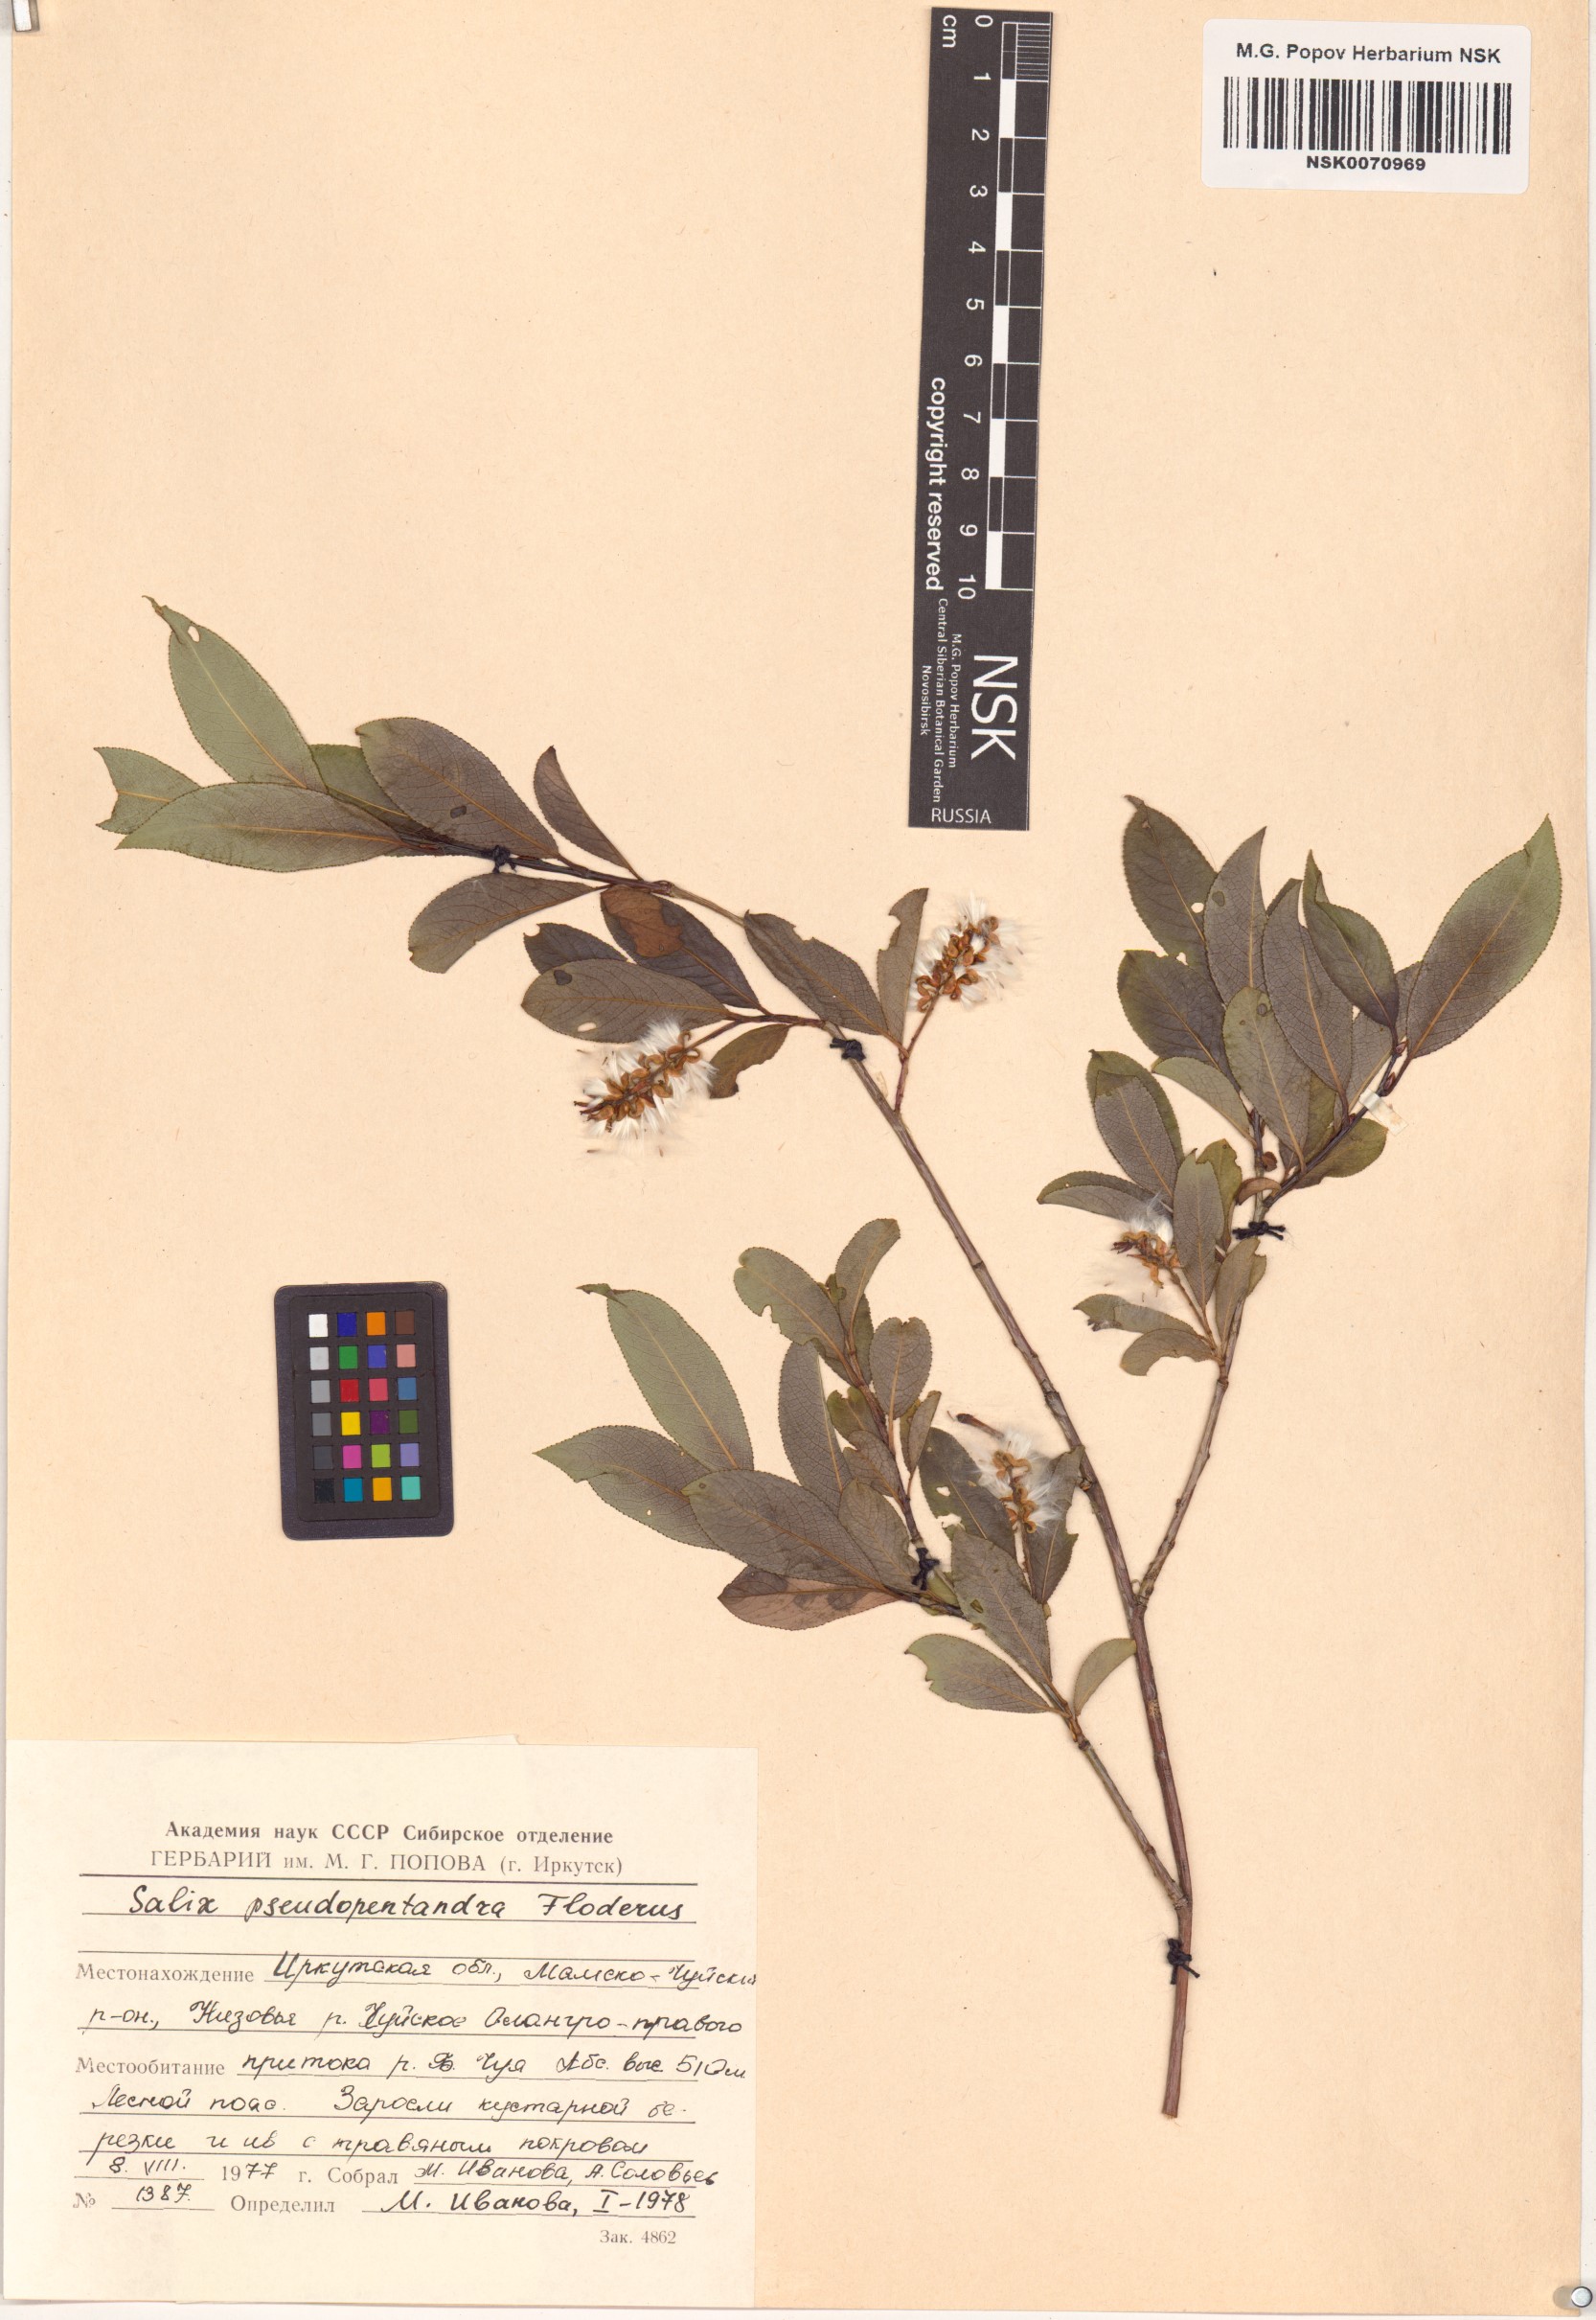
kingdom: Plantae
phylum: Tracheophyta
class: Magnoliopsida
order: Malpighiales
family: Salicaceae
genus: Salix
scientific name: Salix pseudopentandra
